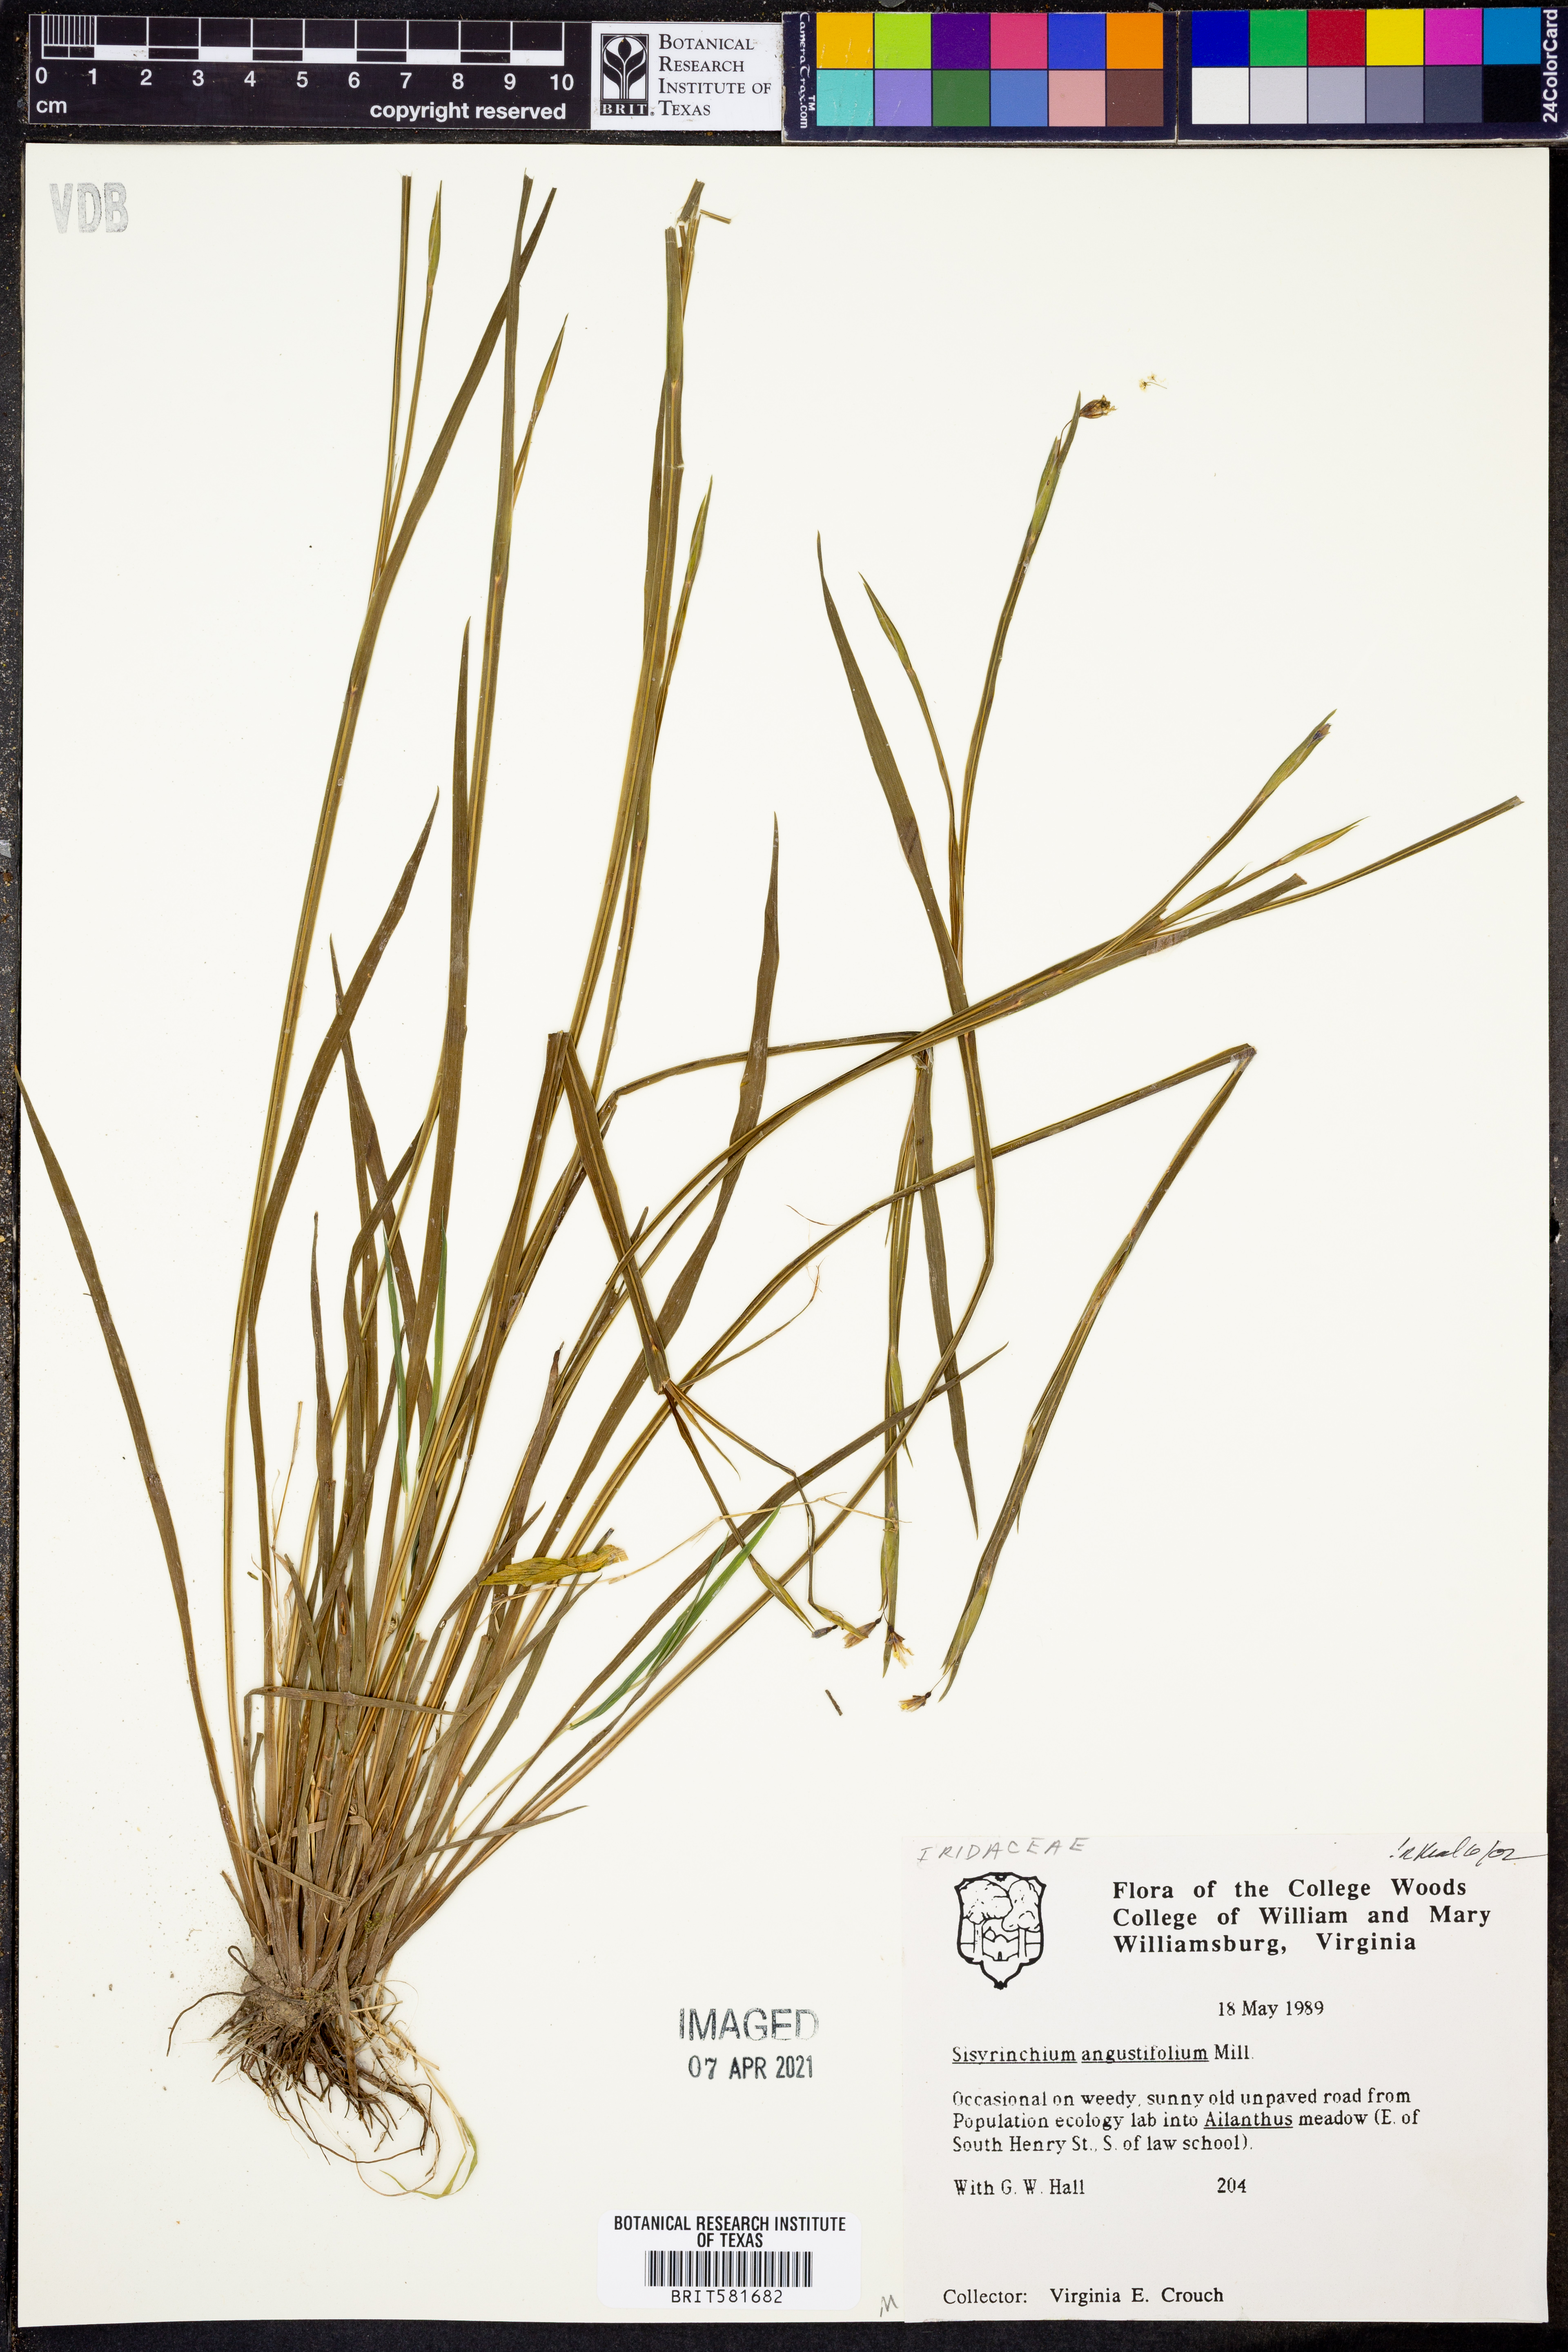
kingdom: Plantae
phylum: Tracheophyta
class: Liliopsida
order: Asparagales
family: Iridaceae
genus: Sisyrinchium
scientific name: Sisyrinchium angustifolium
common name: Narrow-leaf blue-eyed-grass
